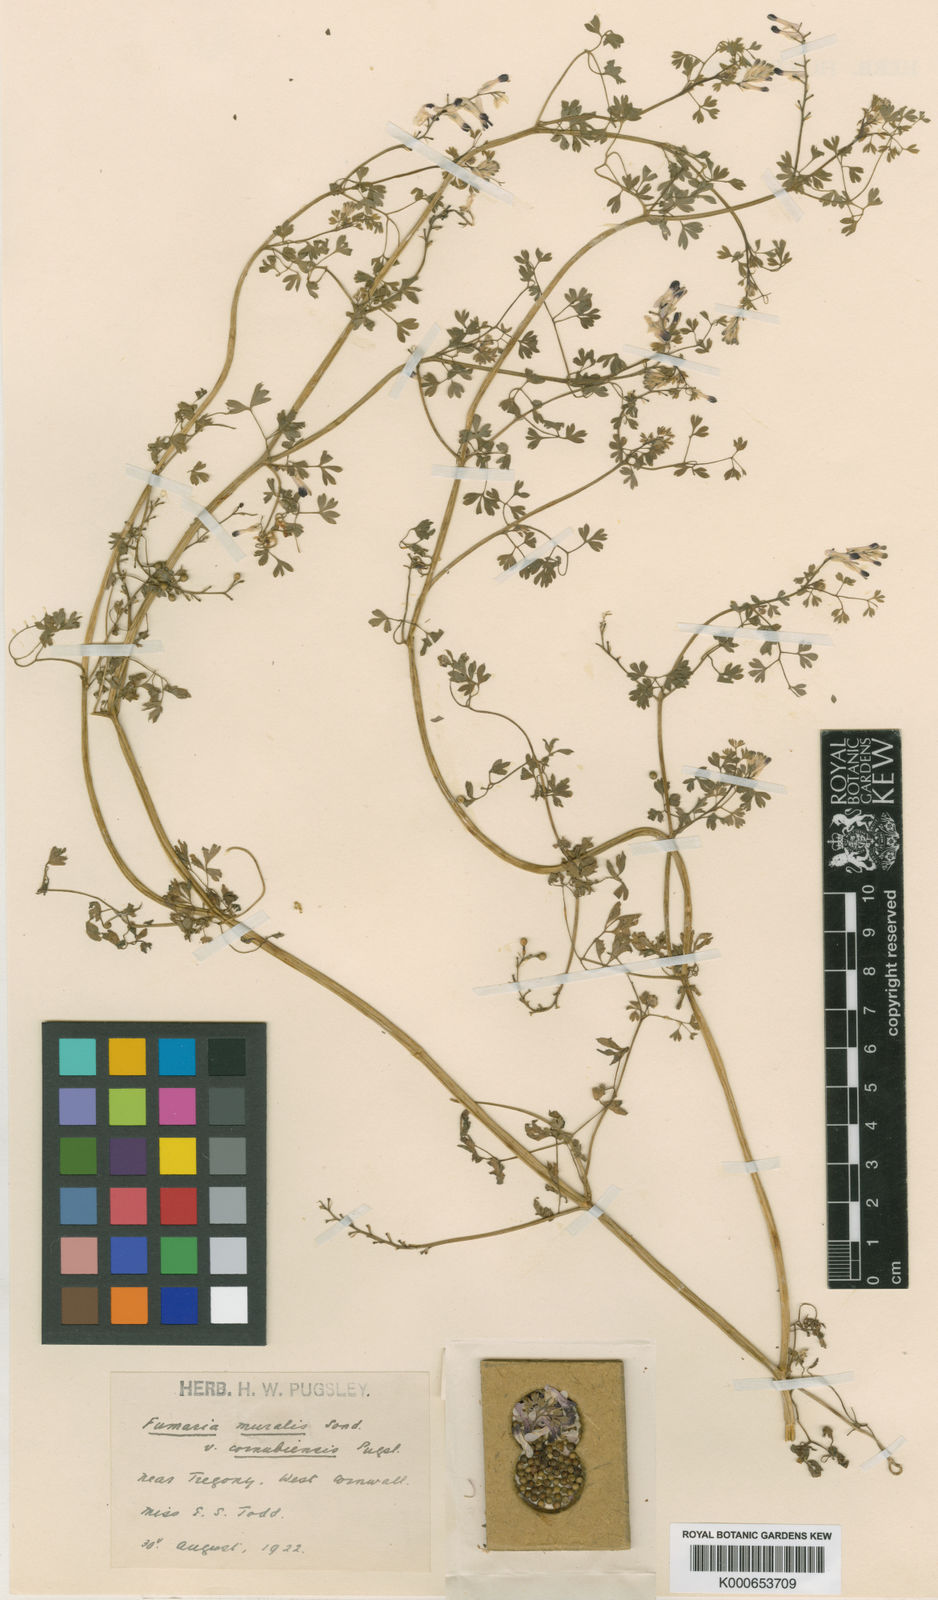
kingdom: Plantae
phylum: Tracheophyta
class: Magnoliopsida
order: Ranunculales
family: Papaveraceae
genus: Fumaria
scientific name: Fumaria muralis
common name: Common ramping-fumitory
